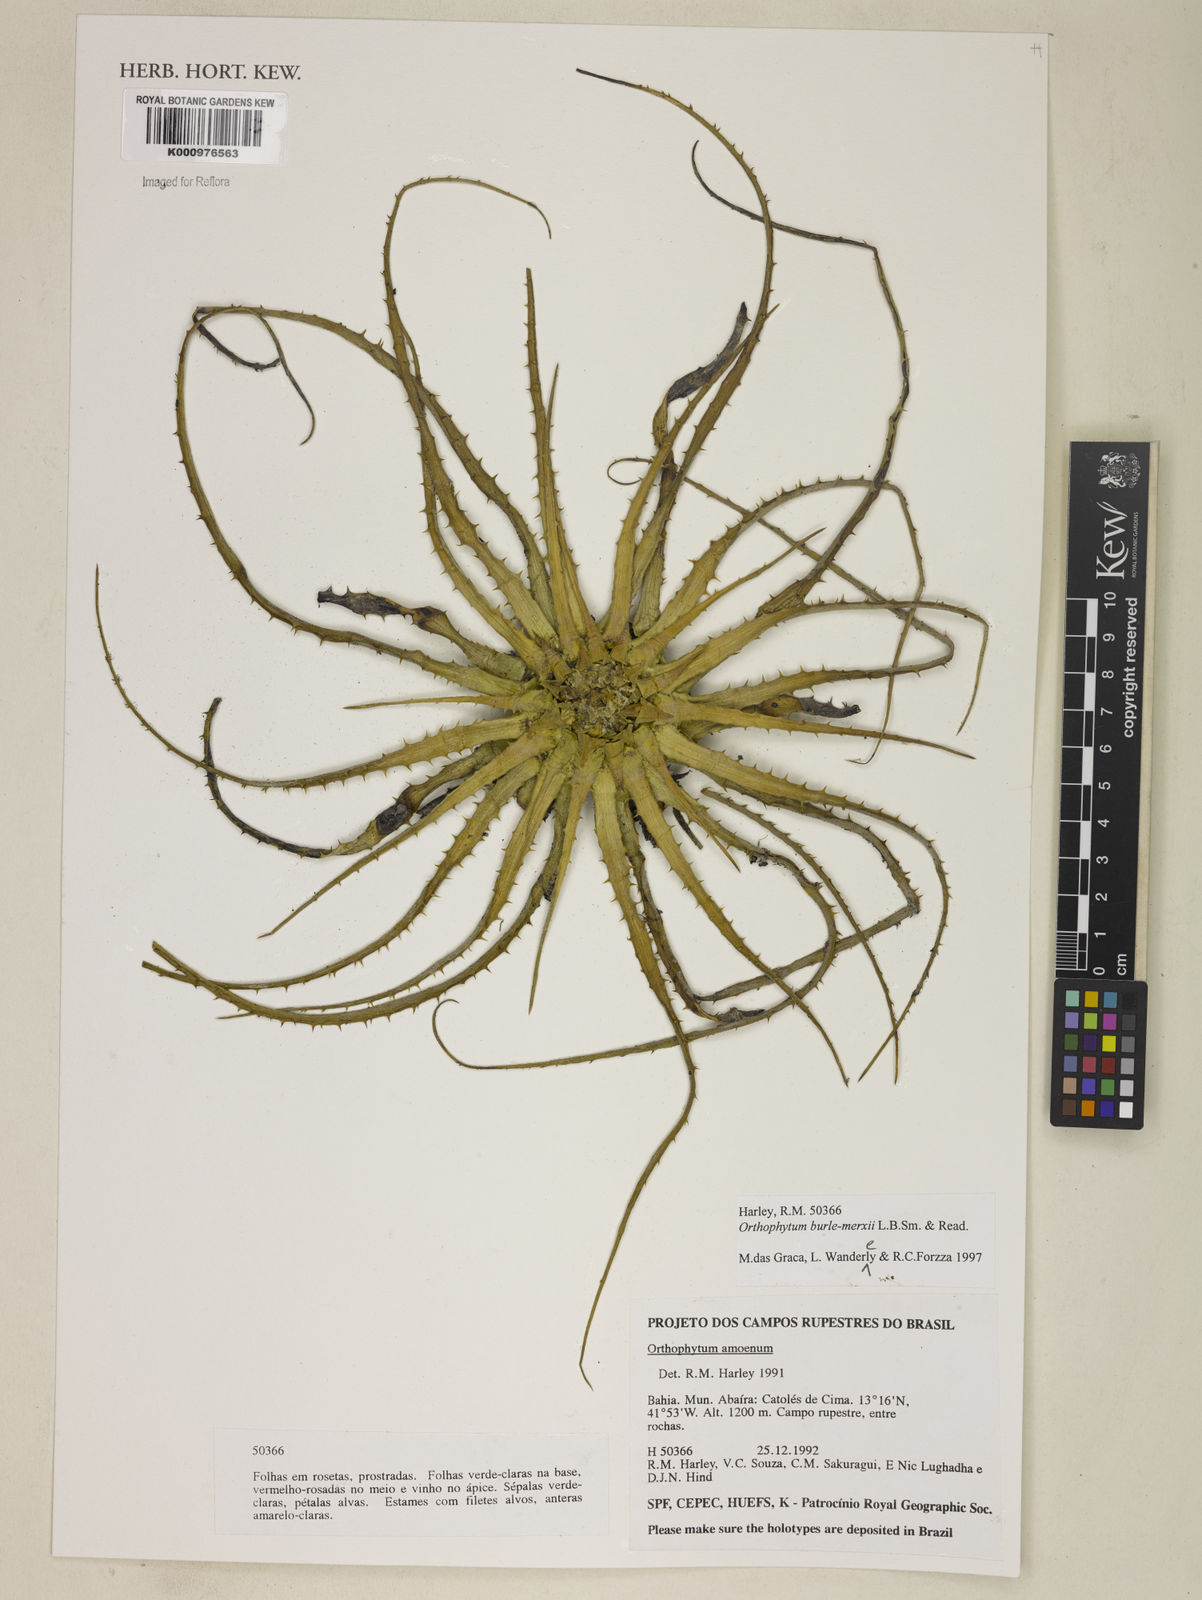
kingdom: Plantae
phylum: Tracheophyta
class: Liliopsida
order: Poales
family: Bromeliaceae
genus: Sincoraea
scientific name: Sincoraea burle-marxii
